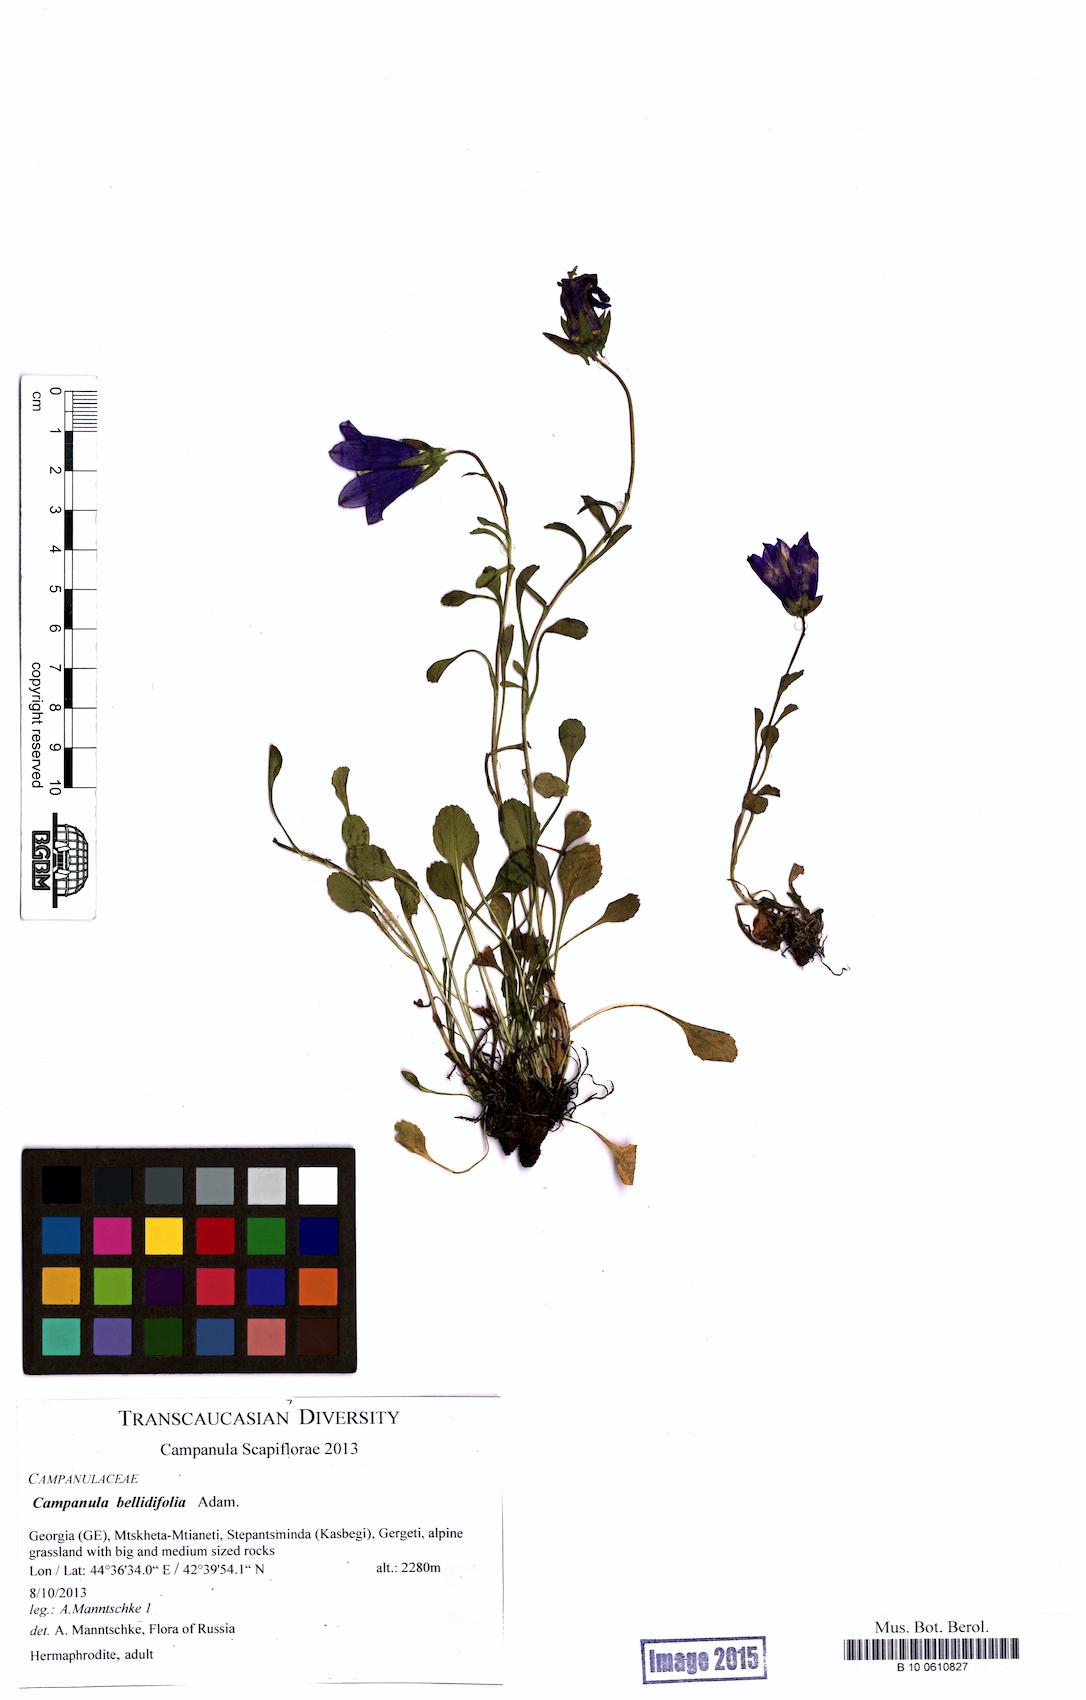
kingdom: Plantae
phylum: Tracheophyta
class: Magnoliopsida
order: Asterales
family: Campanulaceae
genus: Campanula
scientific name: Campanula bellidifolia
